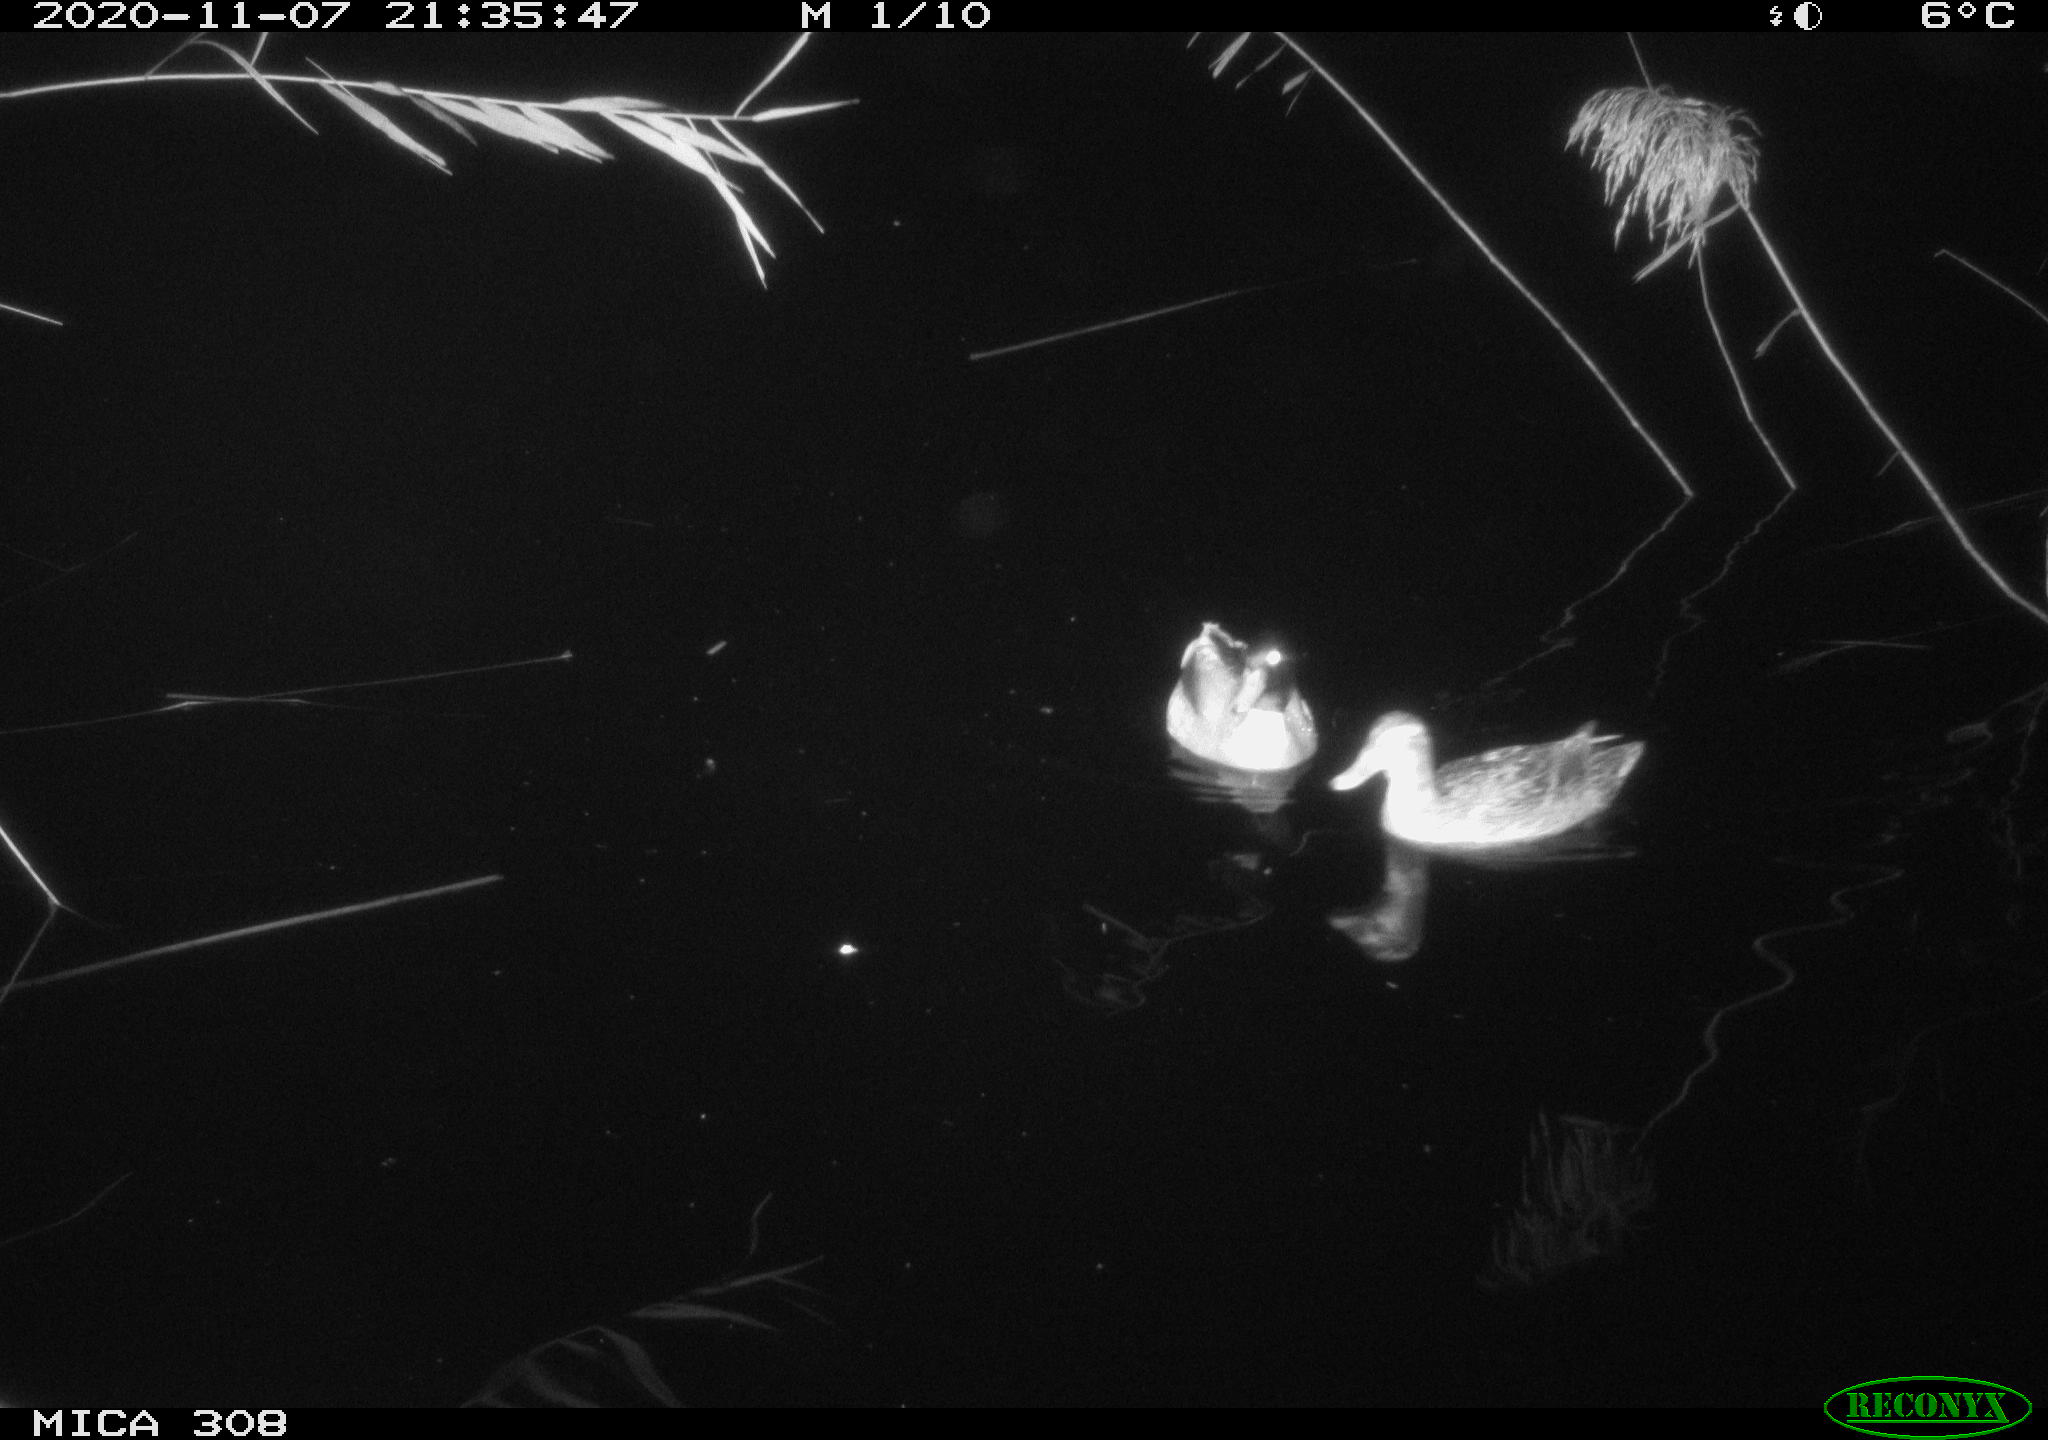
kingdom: Animalia
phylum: Chordata
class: Aves
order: Anseriformes
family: Anatidae
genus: Anas
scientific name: Anas platyrhynchos
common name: Mallard
